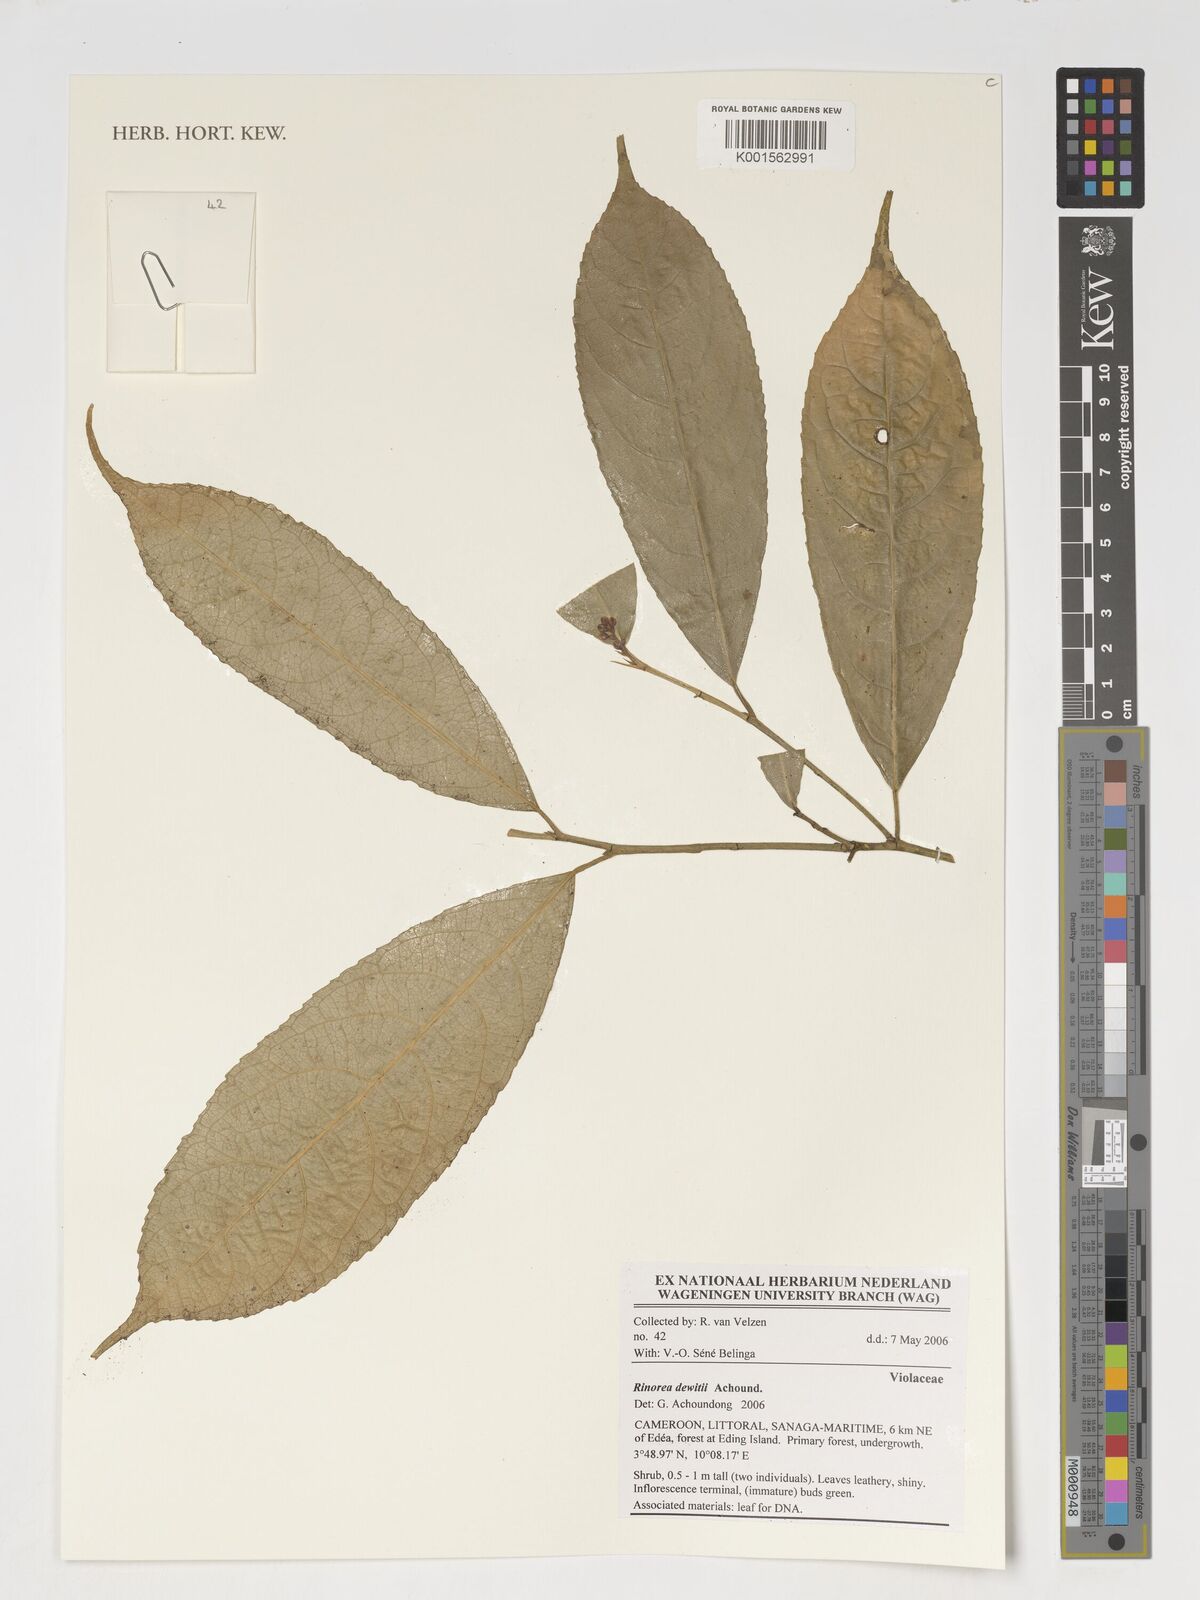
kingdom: Plantae
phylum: Tracheophyta
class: Magnoliopsida
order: Malpighiales
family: Violaceae
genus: Rinorea
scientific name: Rinorea dewitii
